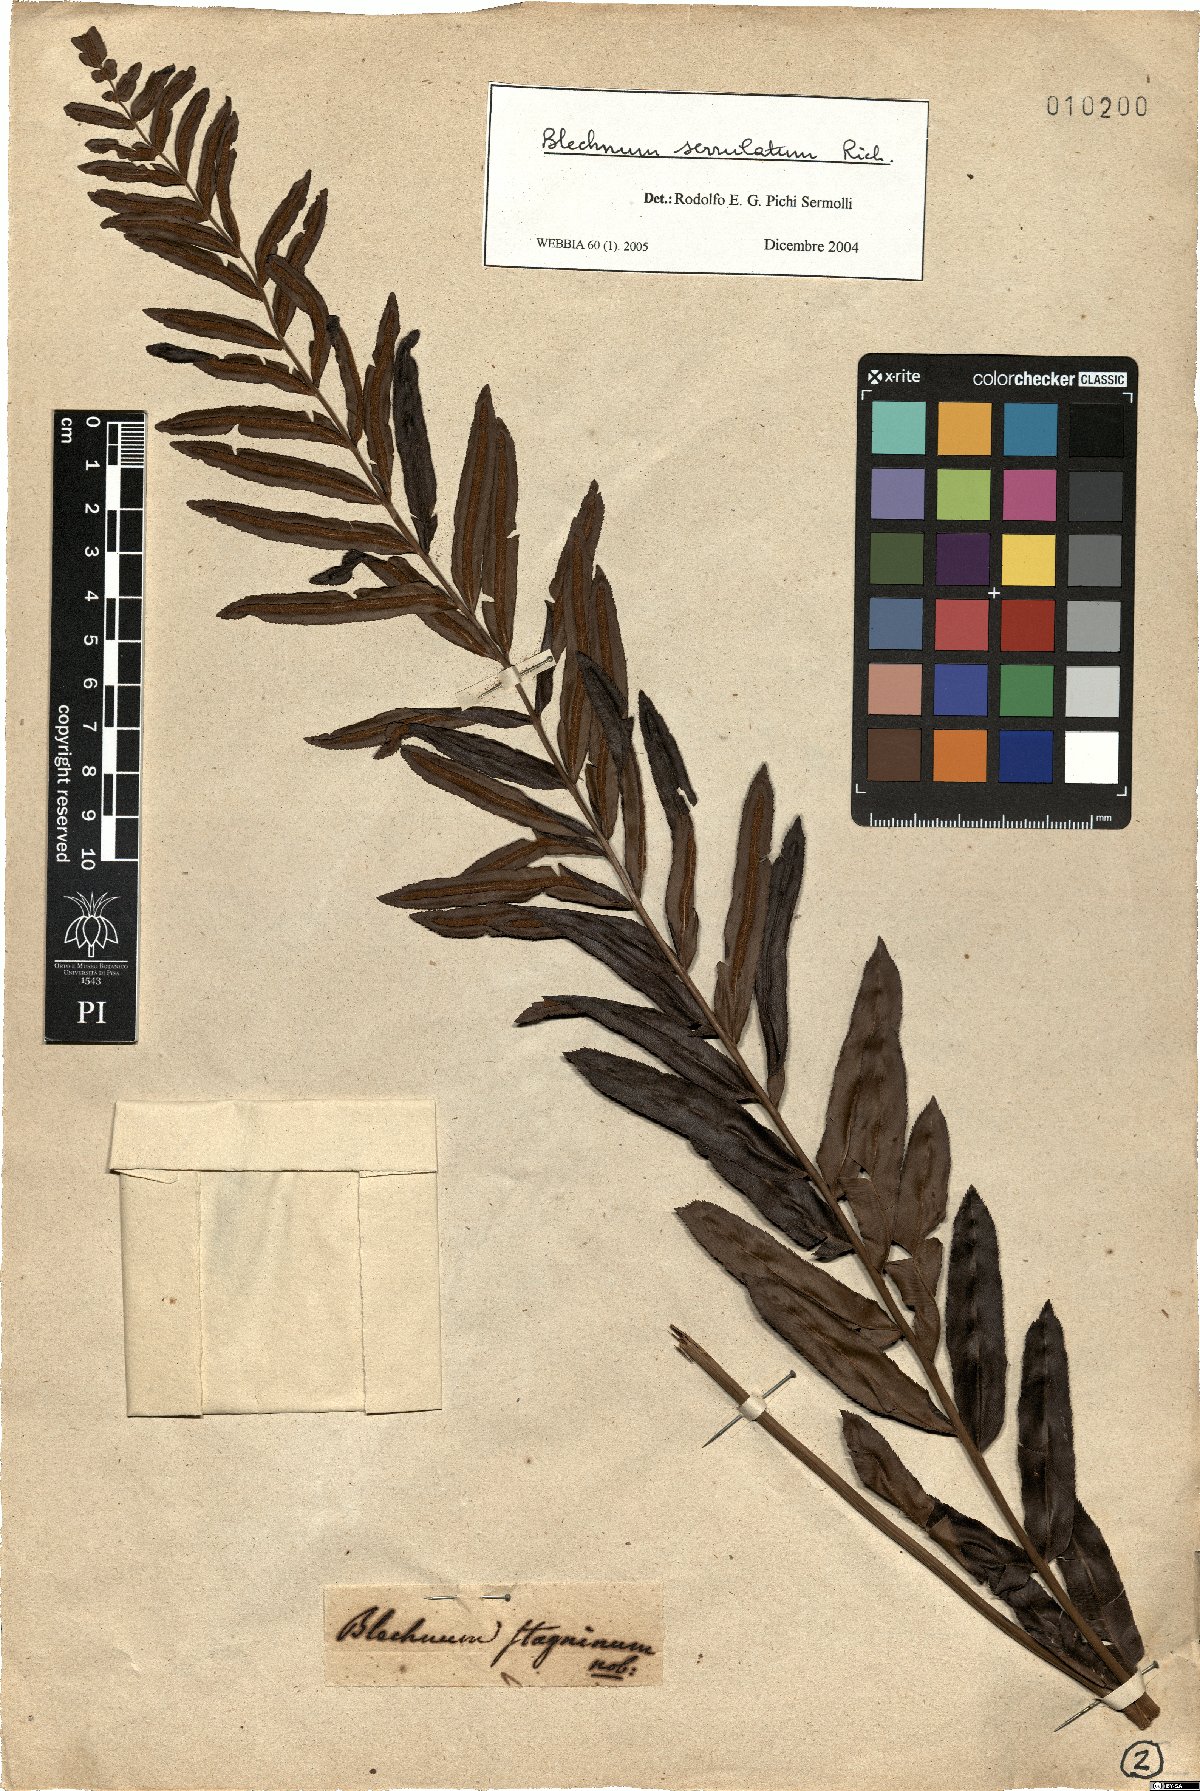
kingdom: Plantae
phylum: Tracheophyta
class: Polypodiopsida
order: Polypodiales
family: Blechnaceae
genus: Telmatoblechnum
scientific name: Telmatoblechnum serrulatum
